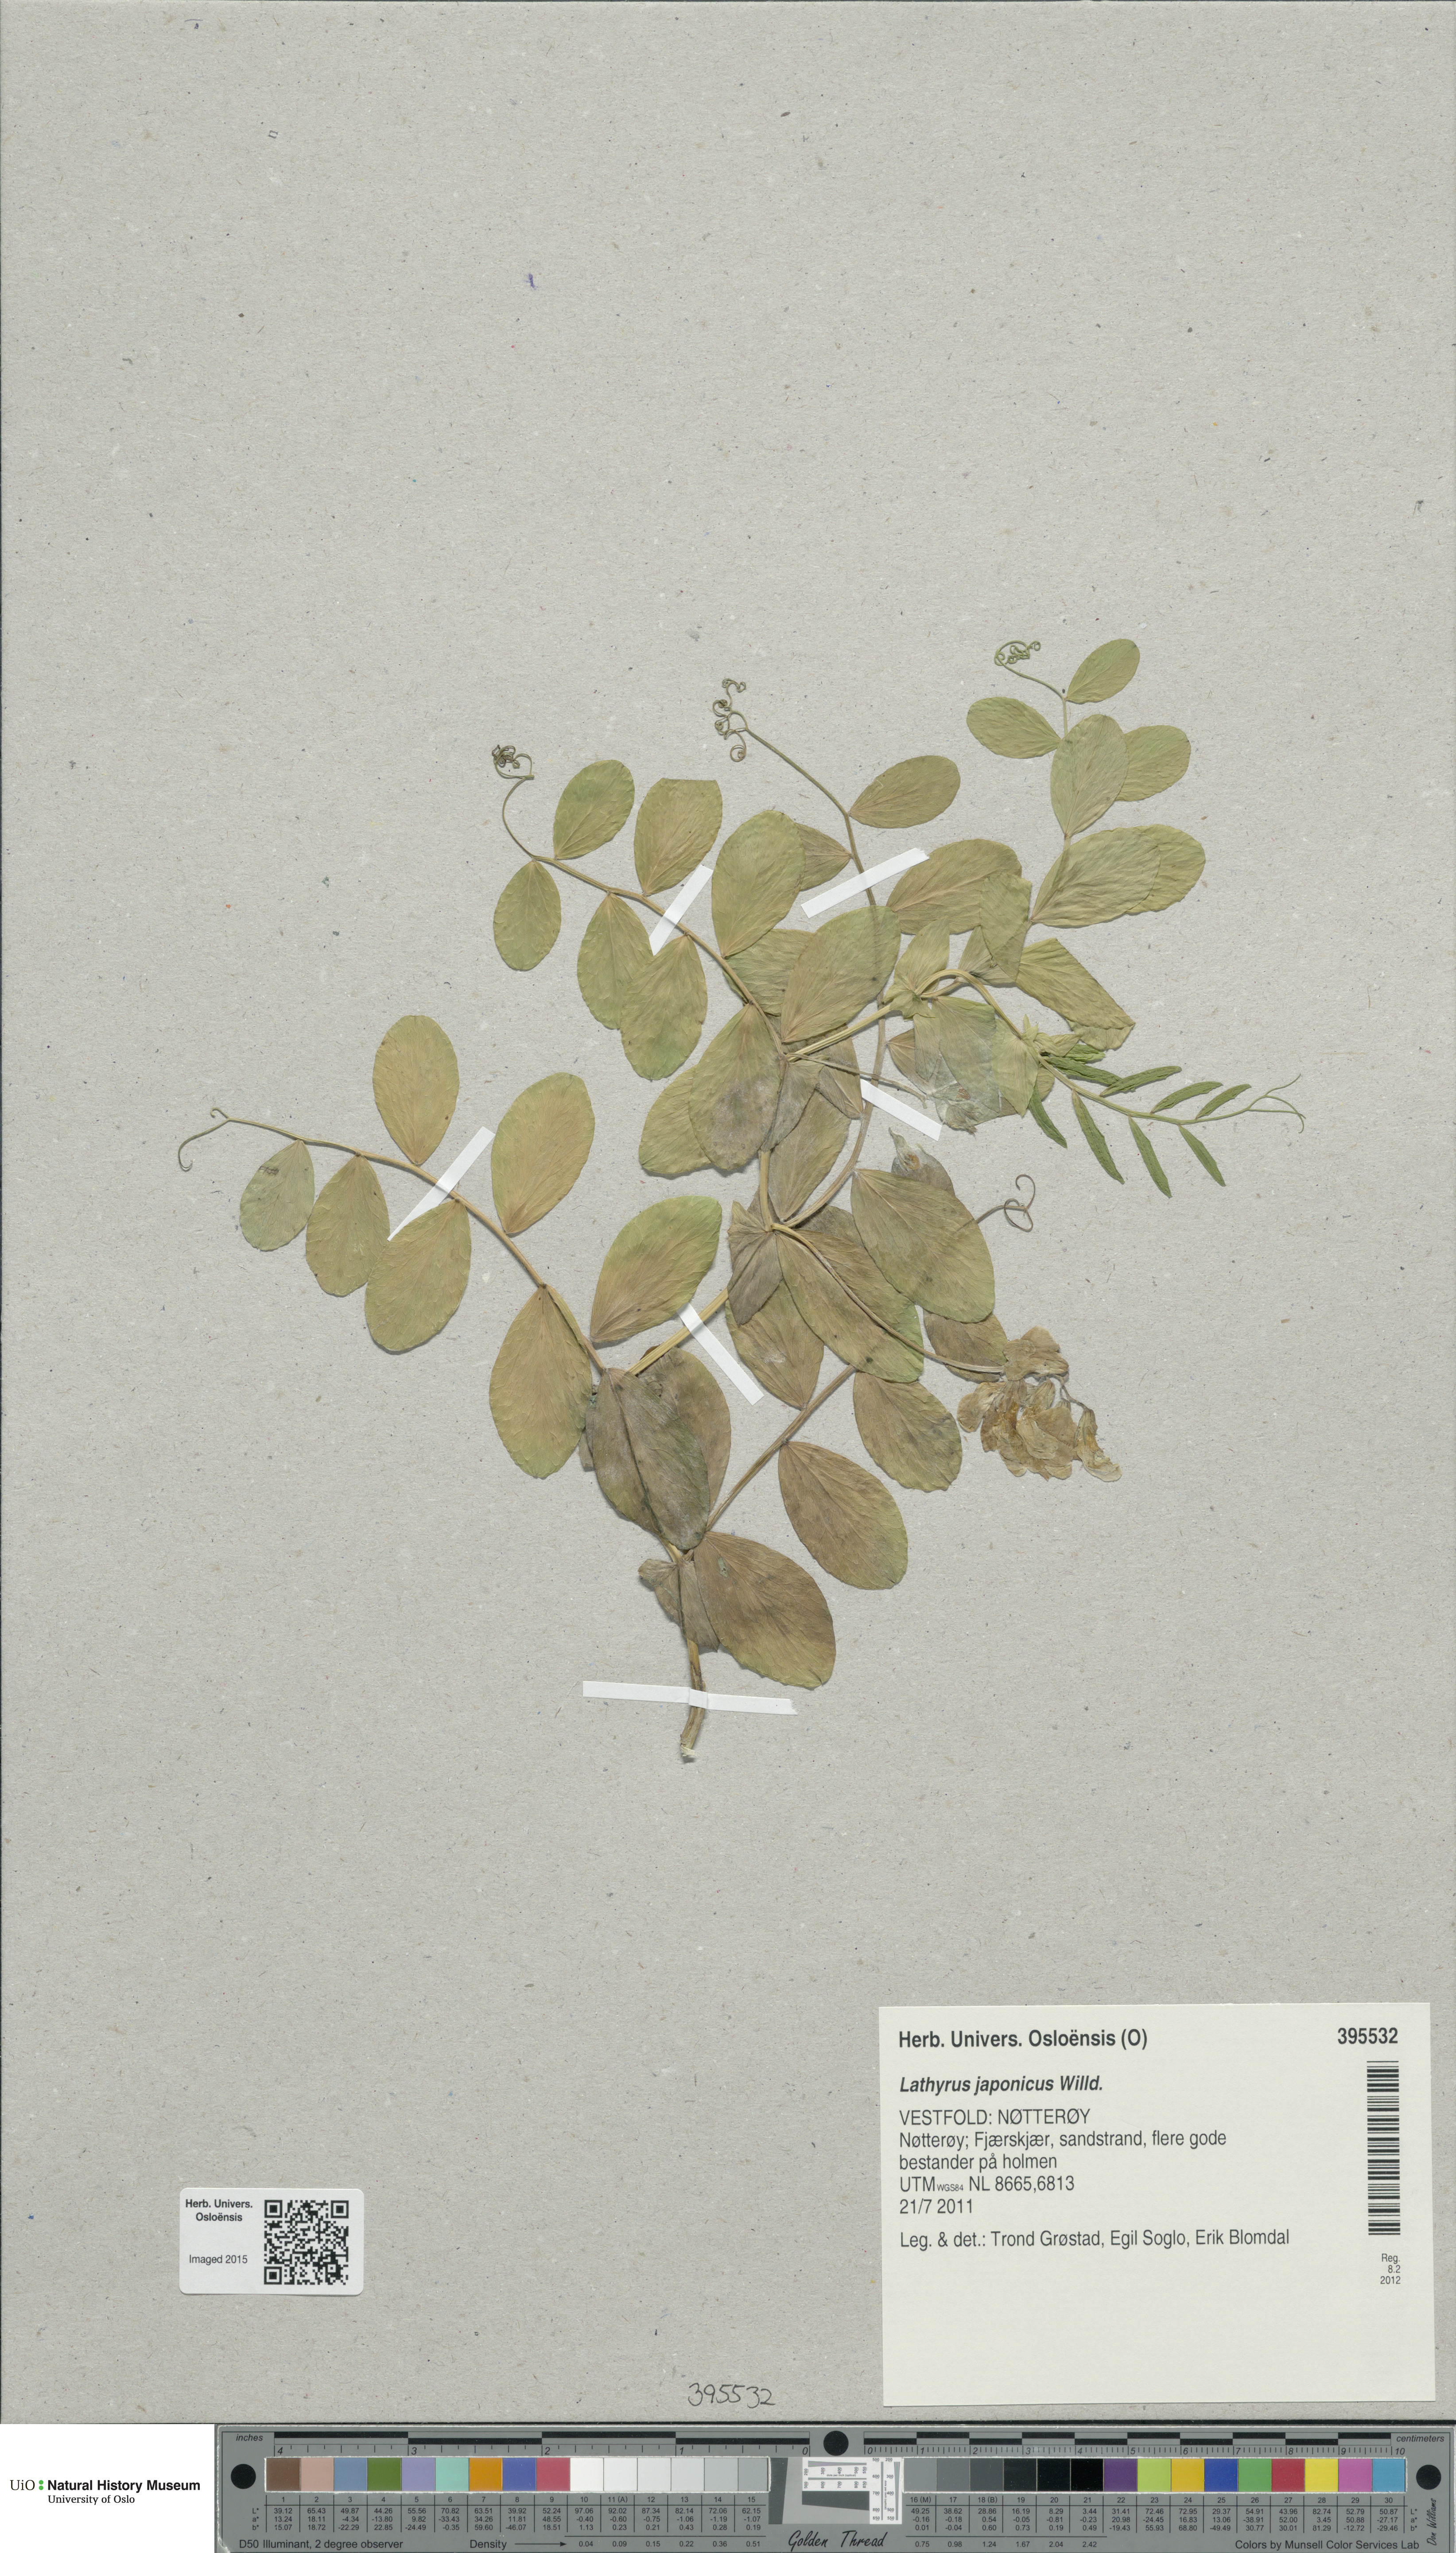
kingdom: Plantae
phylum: Tracheophyta
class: Magnoliopsida
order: Fabales
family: Fabaceae
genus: Lathyrus
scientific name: Lathyrus japonicus
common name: Sea pea
